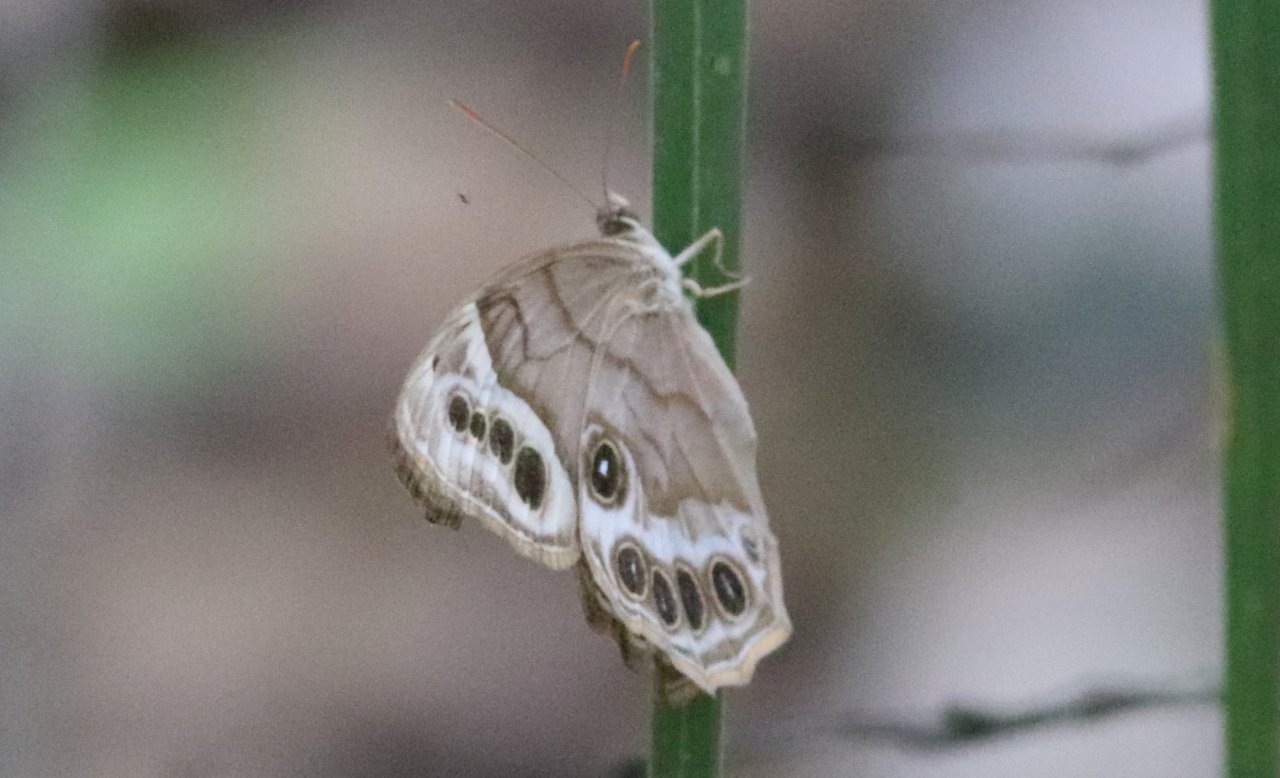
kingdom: Animalia
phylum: Arthropoda
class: Insecta
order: Lepidoptera
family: Nymphalidae
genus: Enodia
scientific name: Enodia portlandia
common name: Southern Pearly Eye
